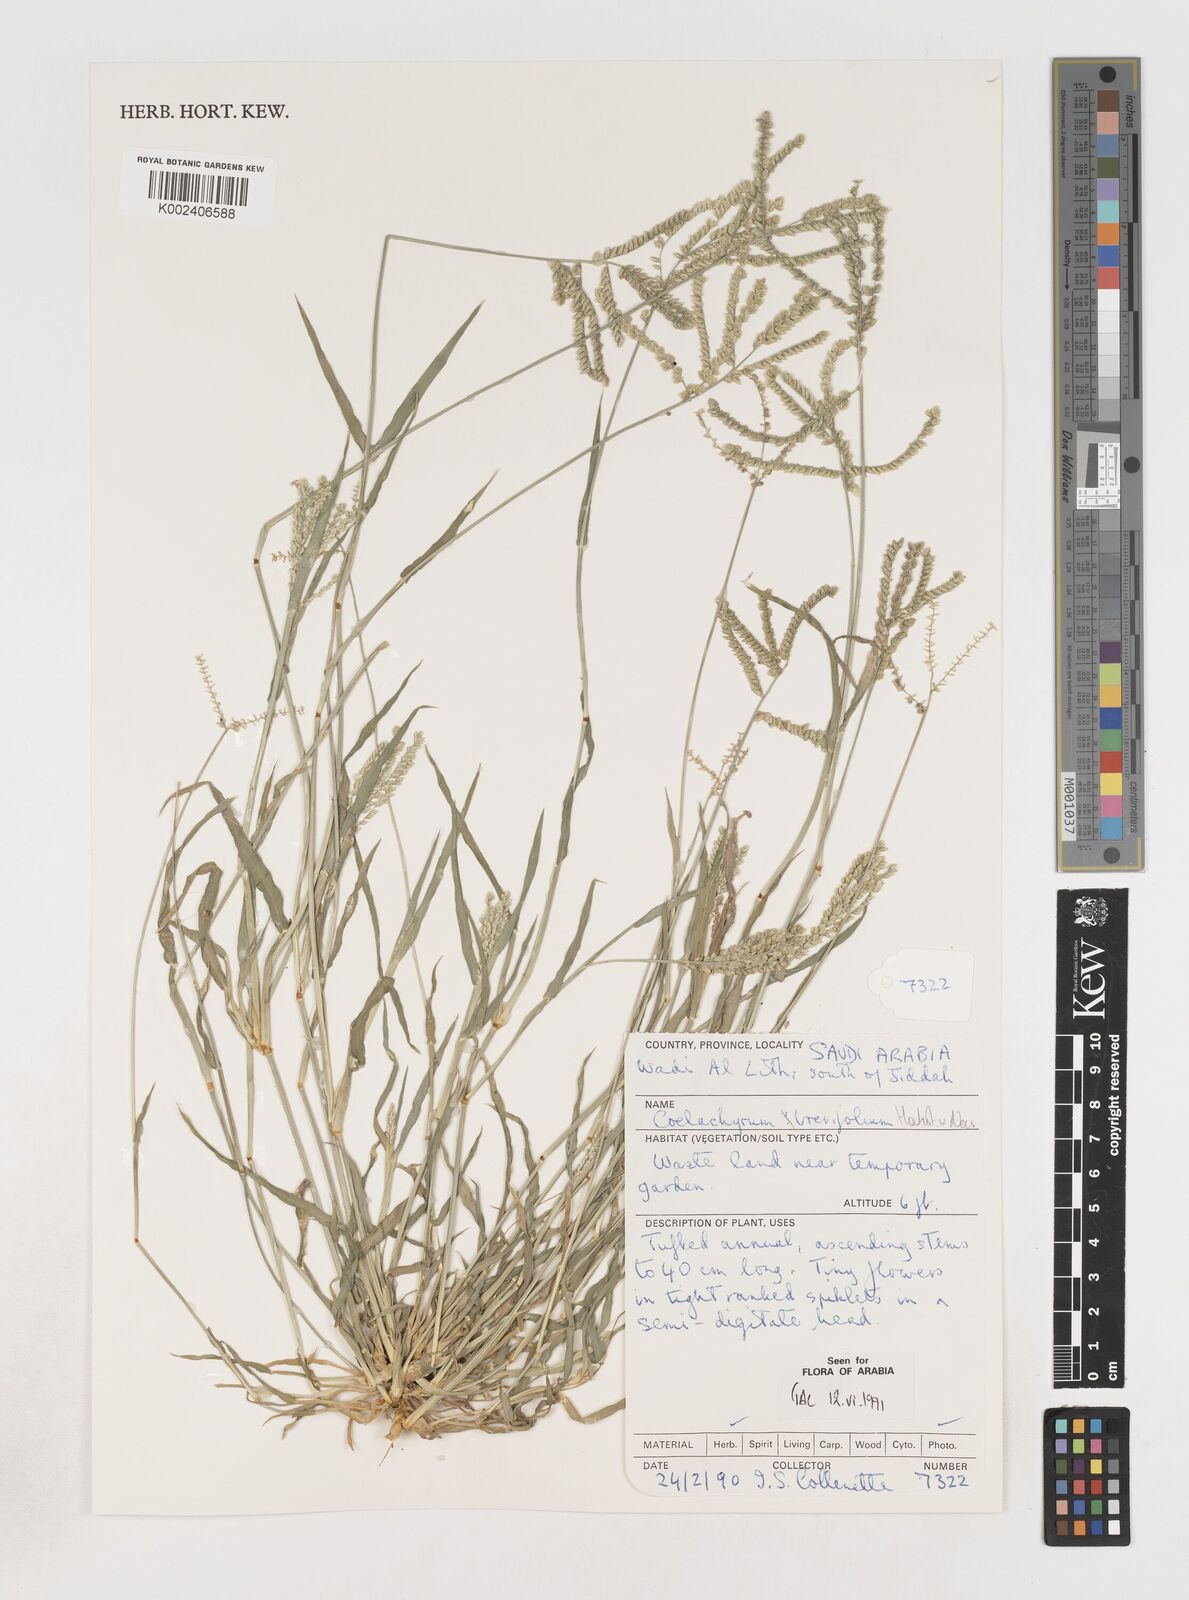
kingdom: Plantae
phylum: Tracheophyta
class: Liliopsida
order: Poales
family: Poaceae
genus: Coelachyrum
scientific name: Coelachyrum brevifolium
